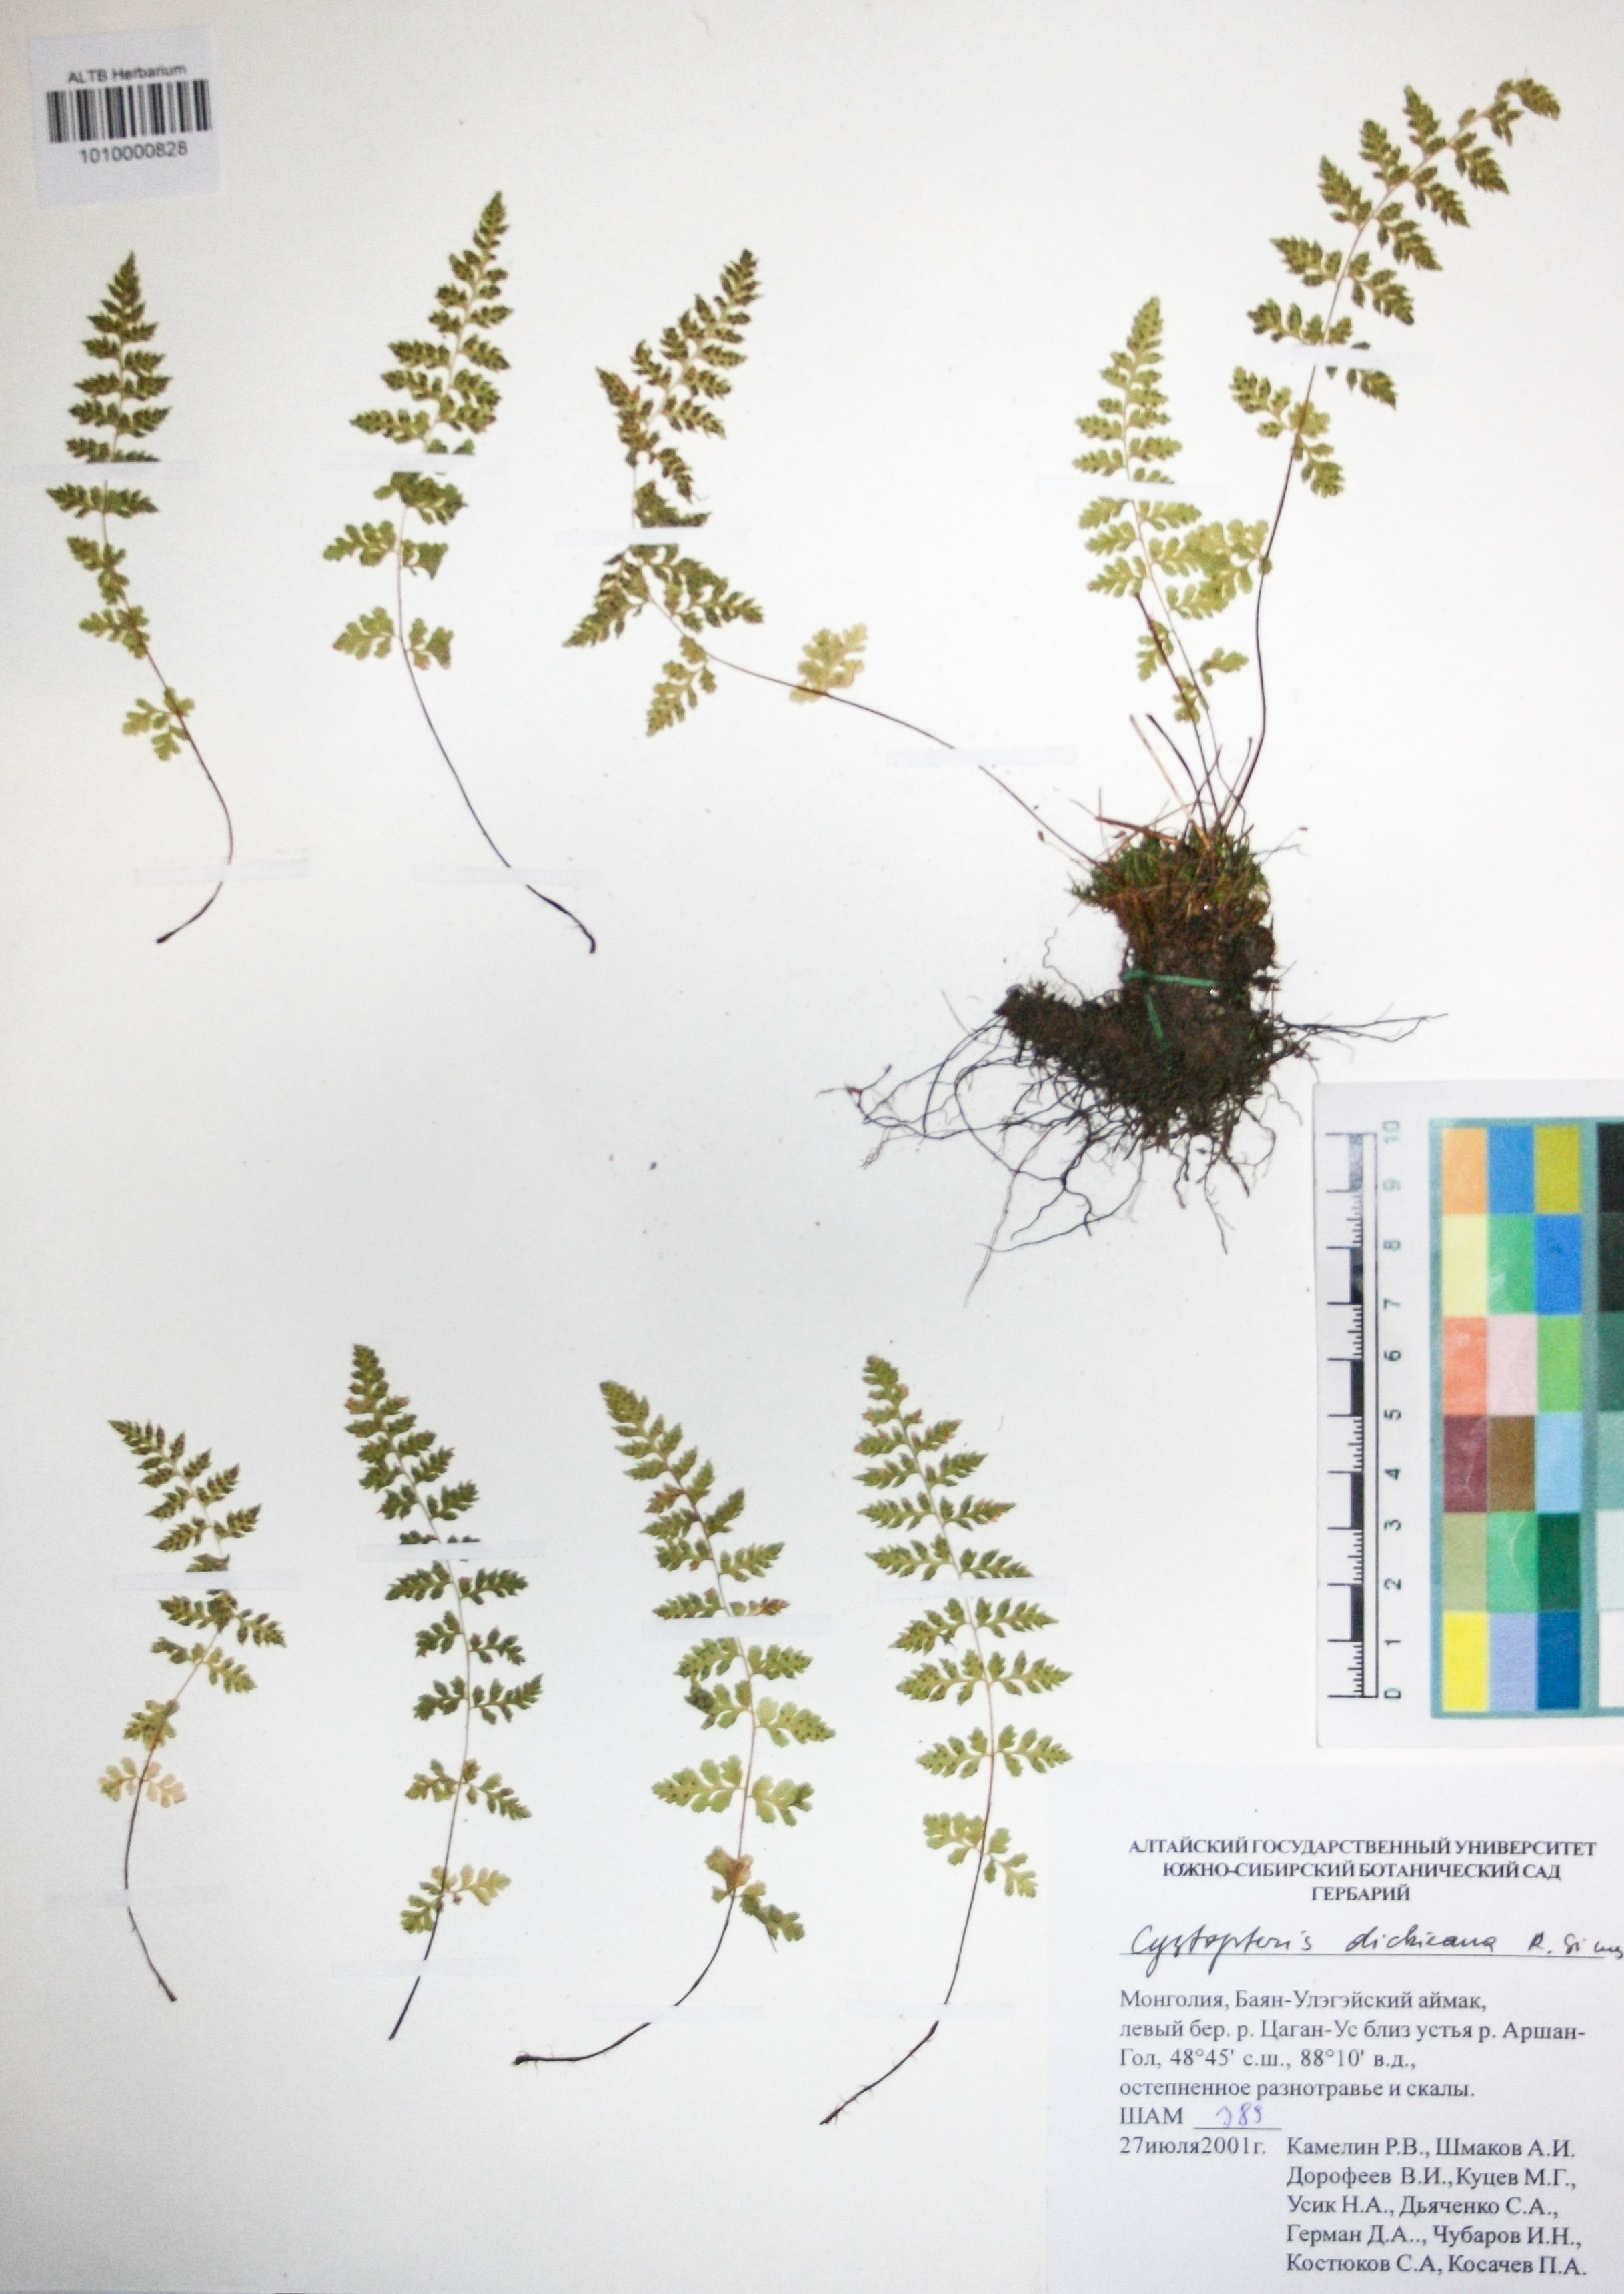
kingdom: Plantae
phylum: Tracheophyta
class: Polypodiopsida
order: Polypodiales
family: Cystopteridaceae
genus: Cystopteris
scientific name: Cystopteris dickieana
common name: Dickie's bladder-fern
